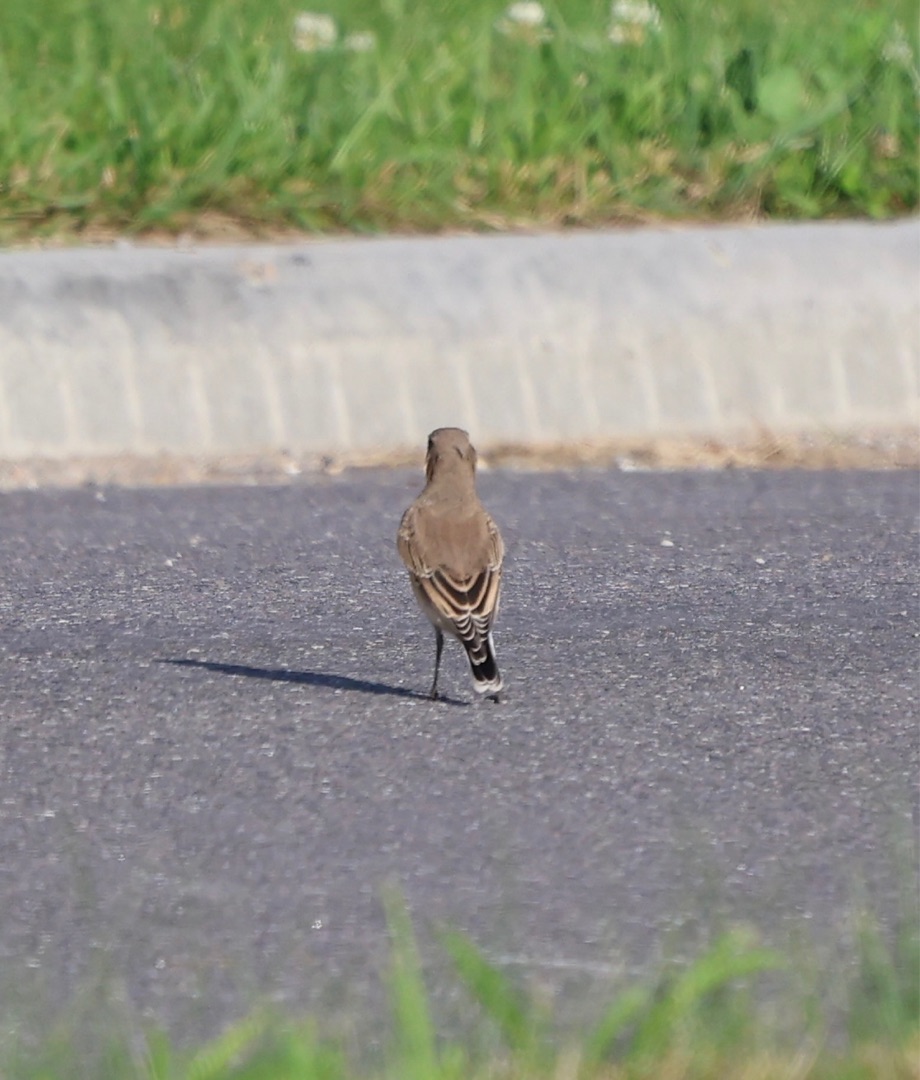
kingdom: Animalia
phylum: Chordata
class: Aves
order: Passeriformes
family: Muscicapidae
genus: Oenanthe
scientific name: Oenanthe oenanthe
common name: Stenpikker
